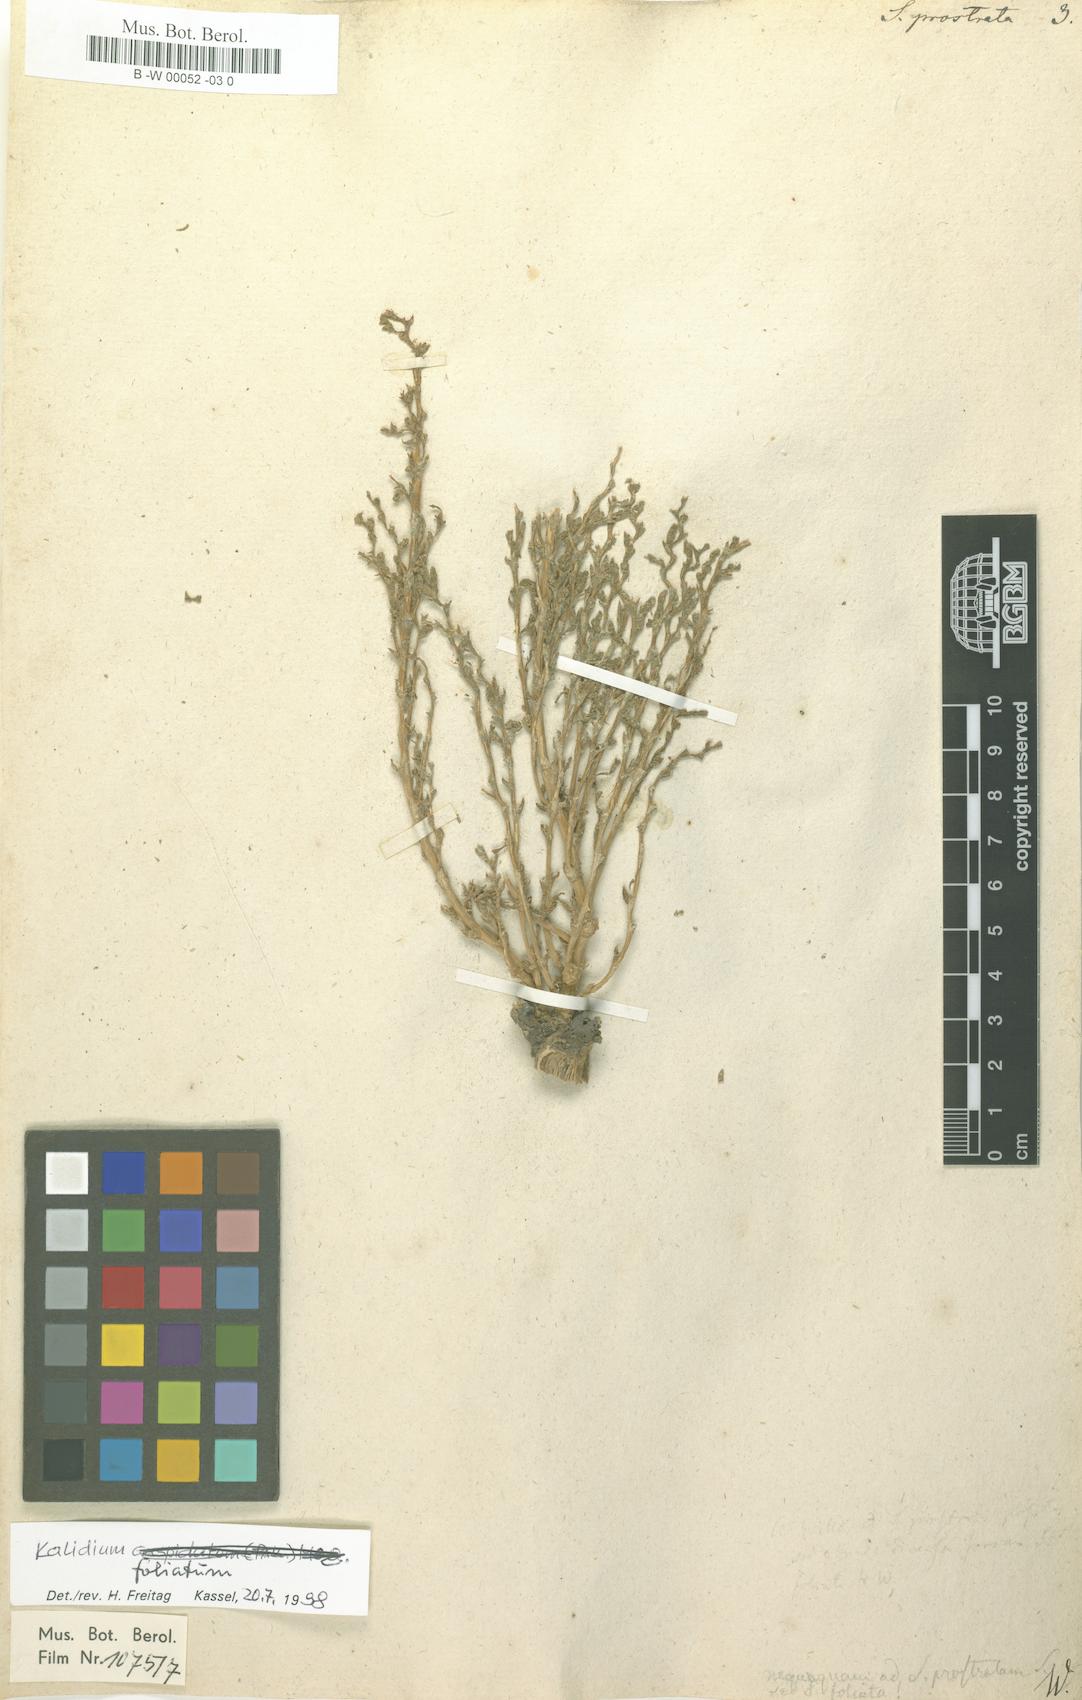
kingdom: Plantae
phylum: Tracheophyta
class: Magnoliopsida
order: Caryophyllales
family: Amaranthaceae
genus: Salicornia
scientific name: Salicornia perennans
